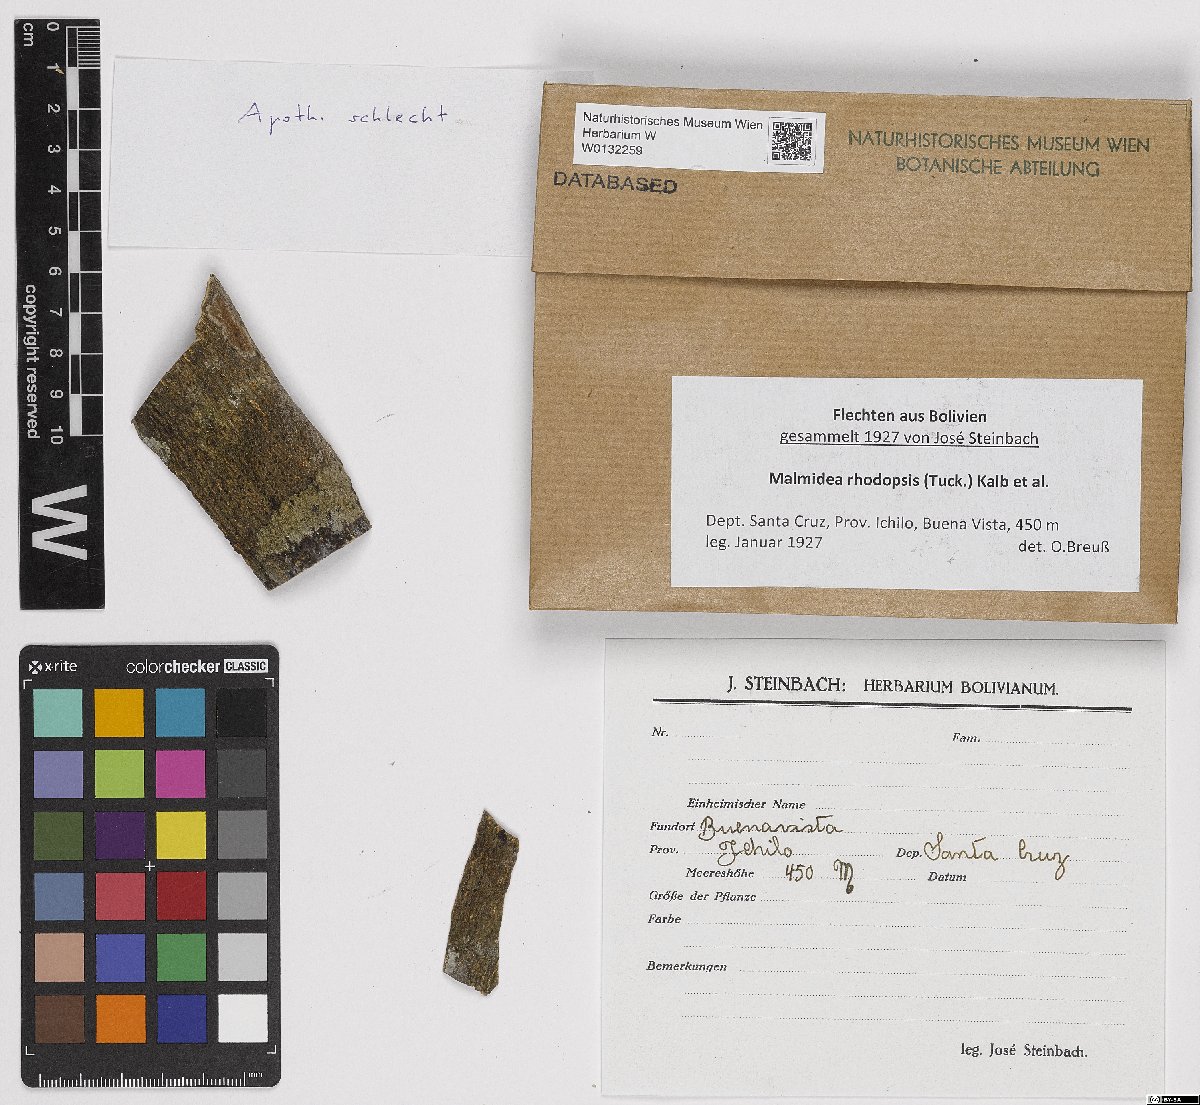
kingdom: Fungi
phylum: Ascomycota
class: Lecanoromycetes
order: Lecanorales
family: Malmideaceae
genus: Malmidea
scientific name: Malmidea rhodopsis
